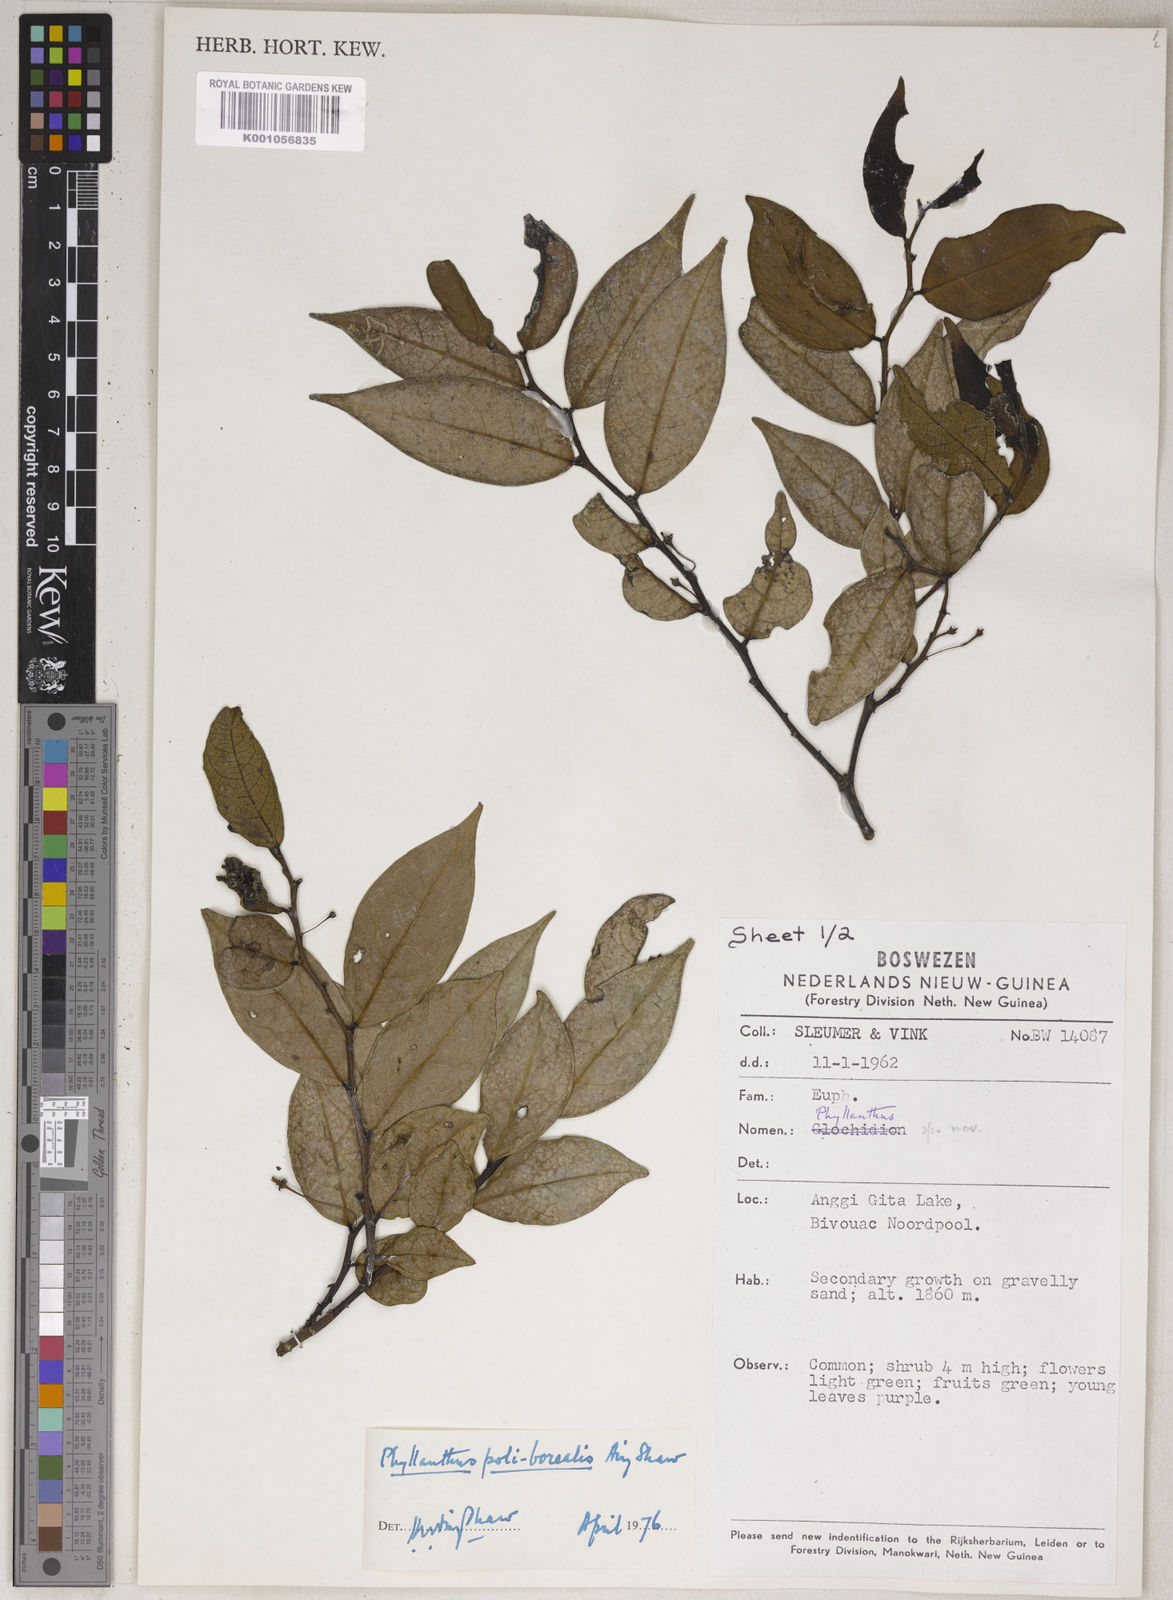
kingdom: Plantae
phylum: Tracheophyta
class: Magnoliopsida
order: Malpighiales
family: Phyllanthaceae
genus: Phyllanthus
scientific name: Phyllanthus poliborealis
